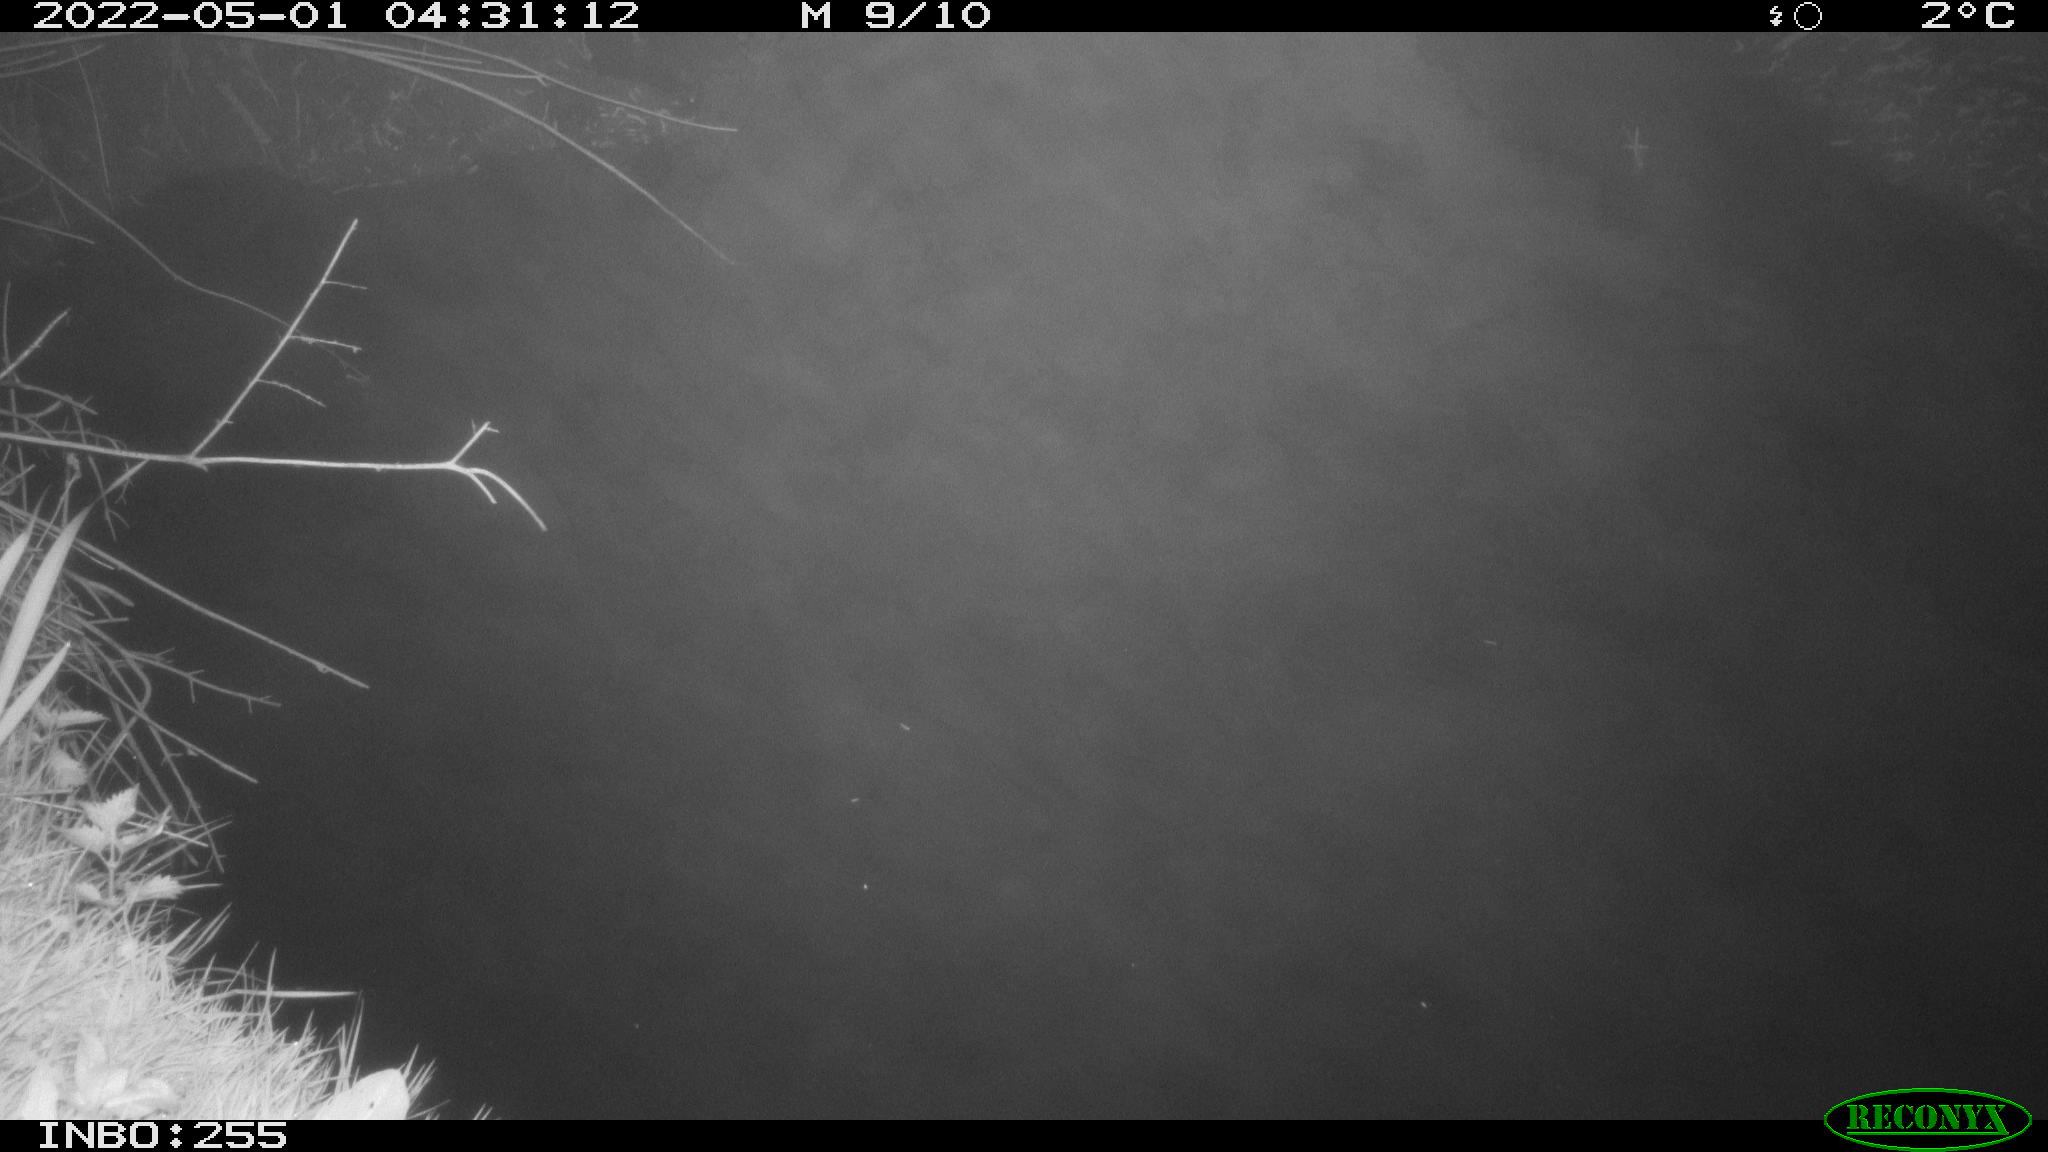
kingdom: Animalia
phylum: Chordata
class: Aves
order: Anseriformes
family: Anatidae
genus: Anas
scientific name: Anas platyrhynchos
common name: Mallard
